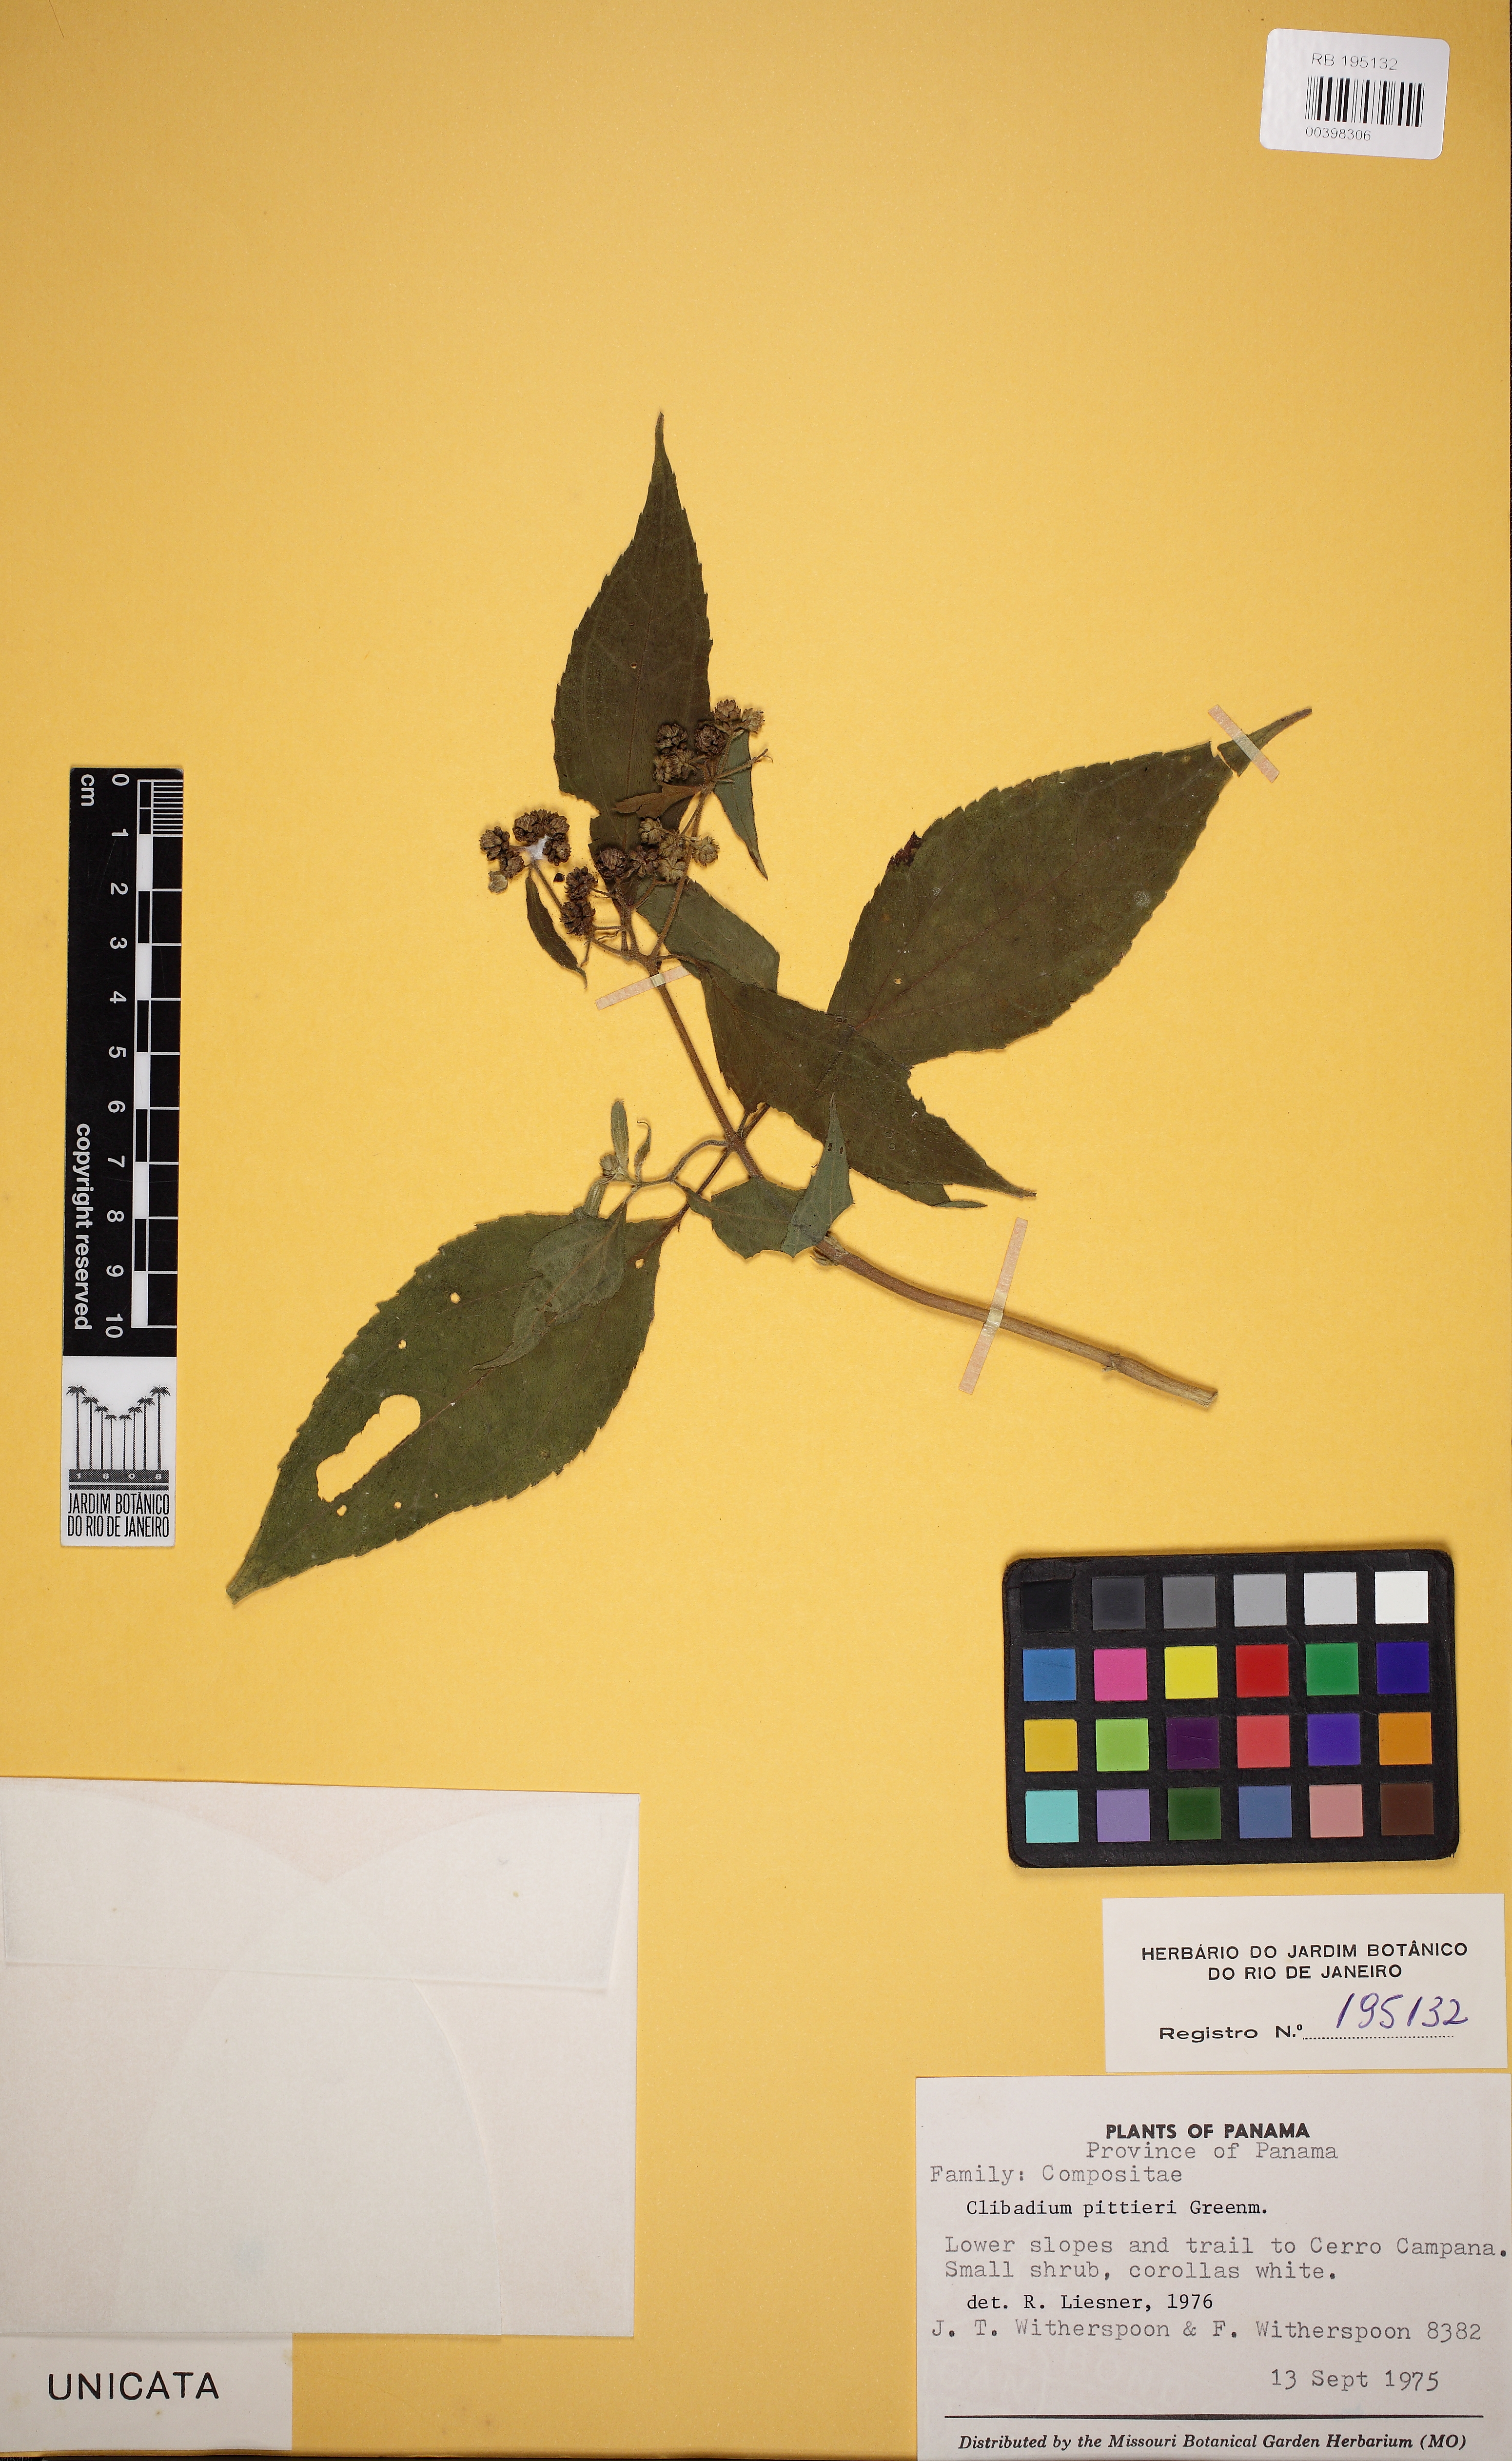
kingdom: Plantae
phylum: Tracheophyta
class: Magnoliopsida
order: Asterales
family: Asteraceae
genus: Clibadium
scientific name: Clibadium eggersii
